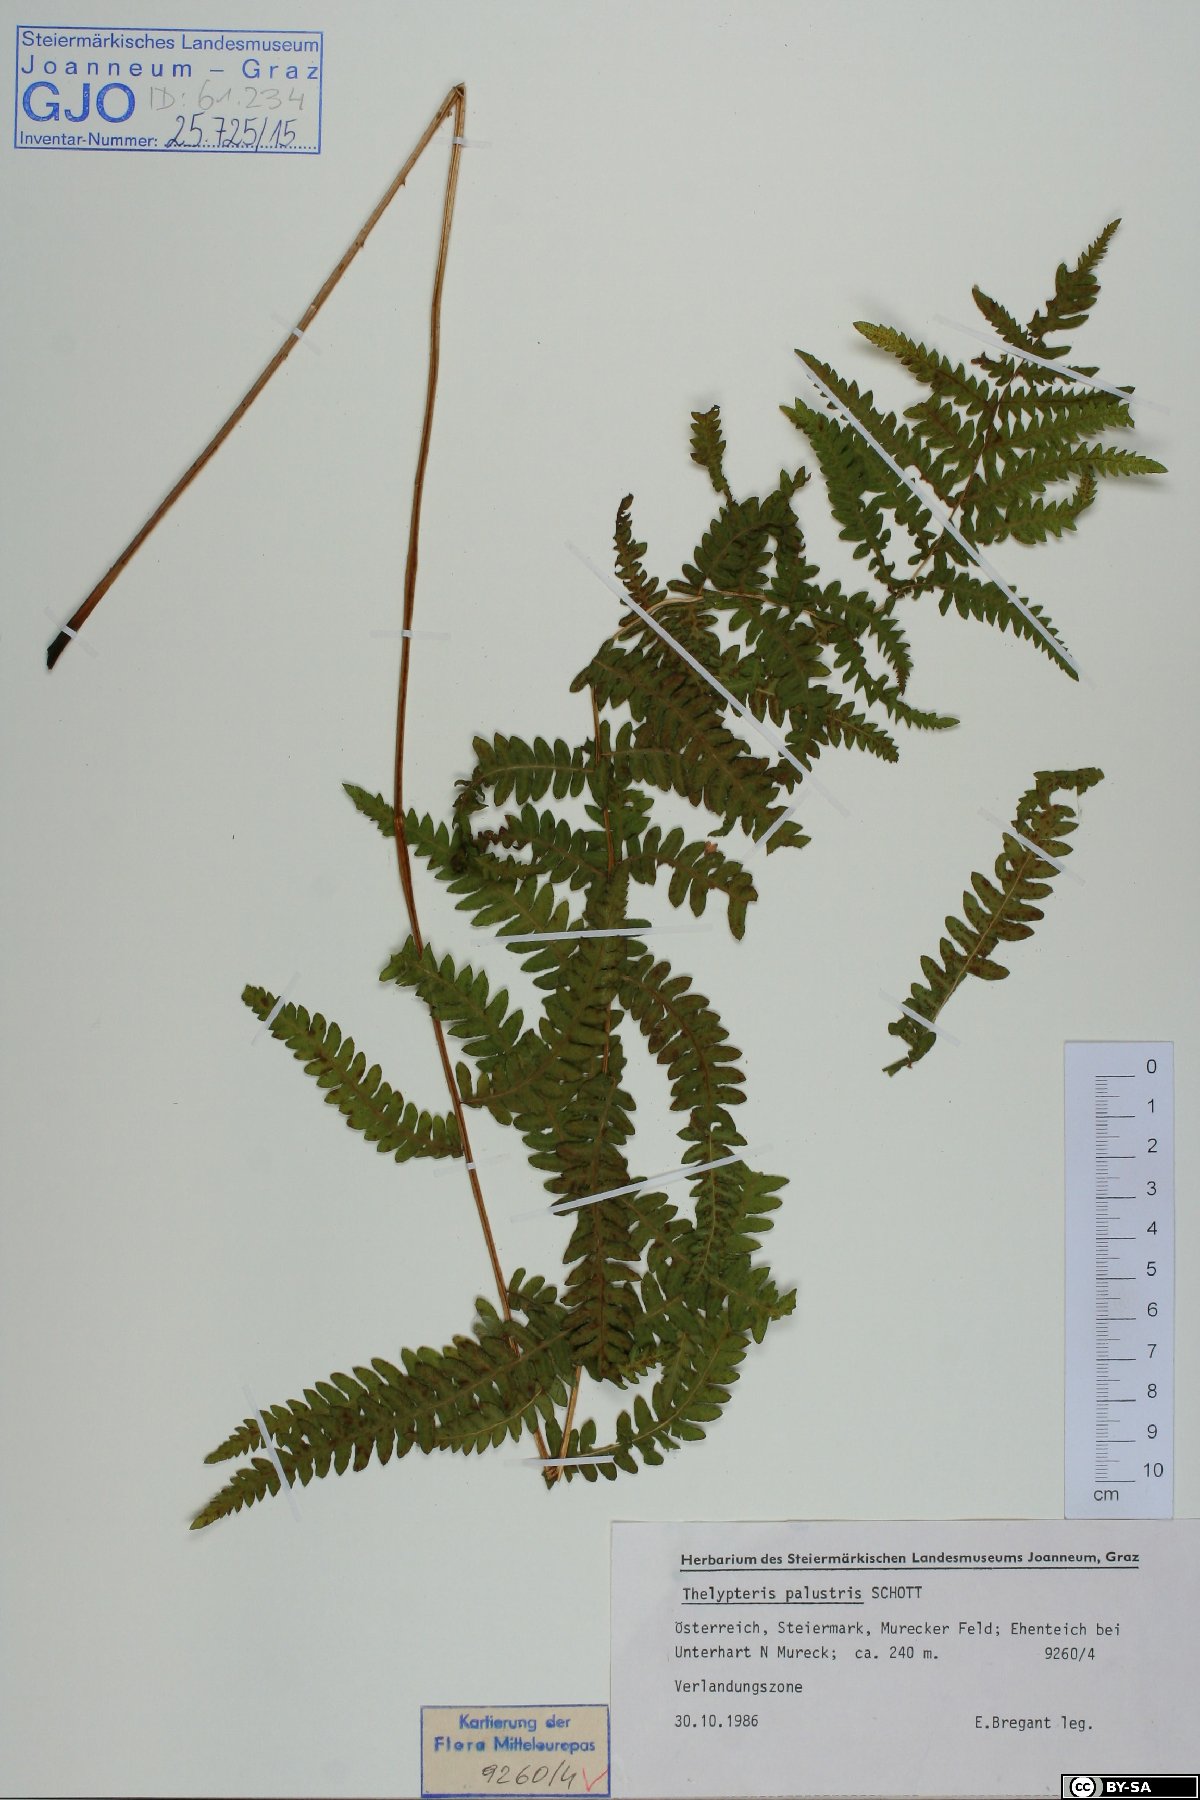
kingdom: Plantae
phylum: Tracheophyta
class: Polypodiopsida
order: Polypodiales
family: Thelypteridaceae
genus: Thelypteris
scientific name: Thelypteris palustris
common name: Marsh fern
